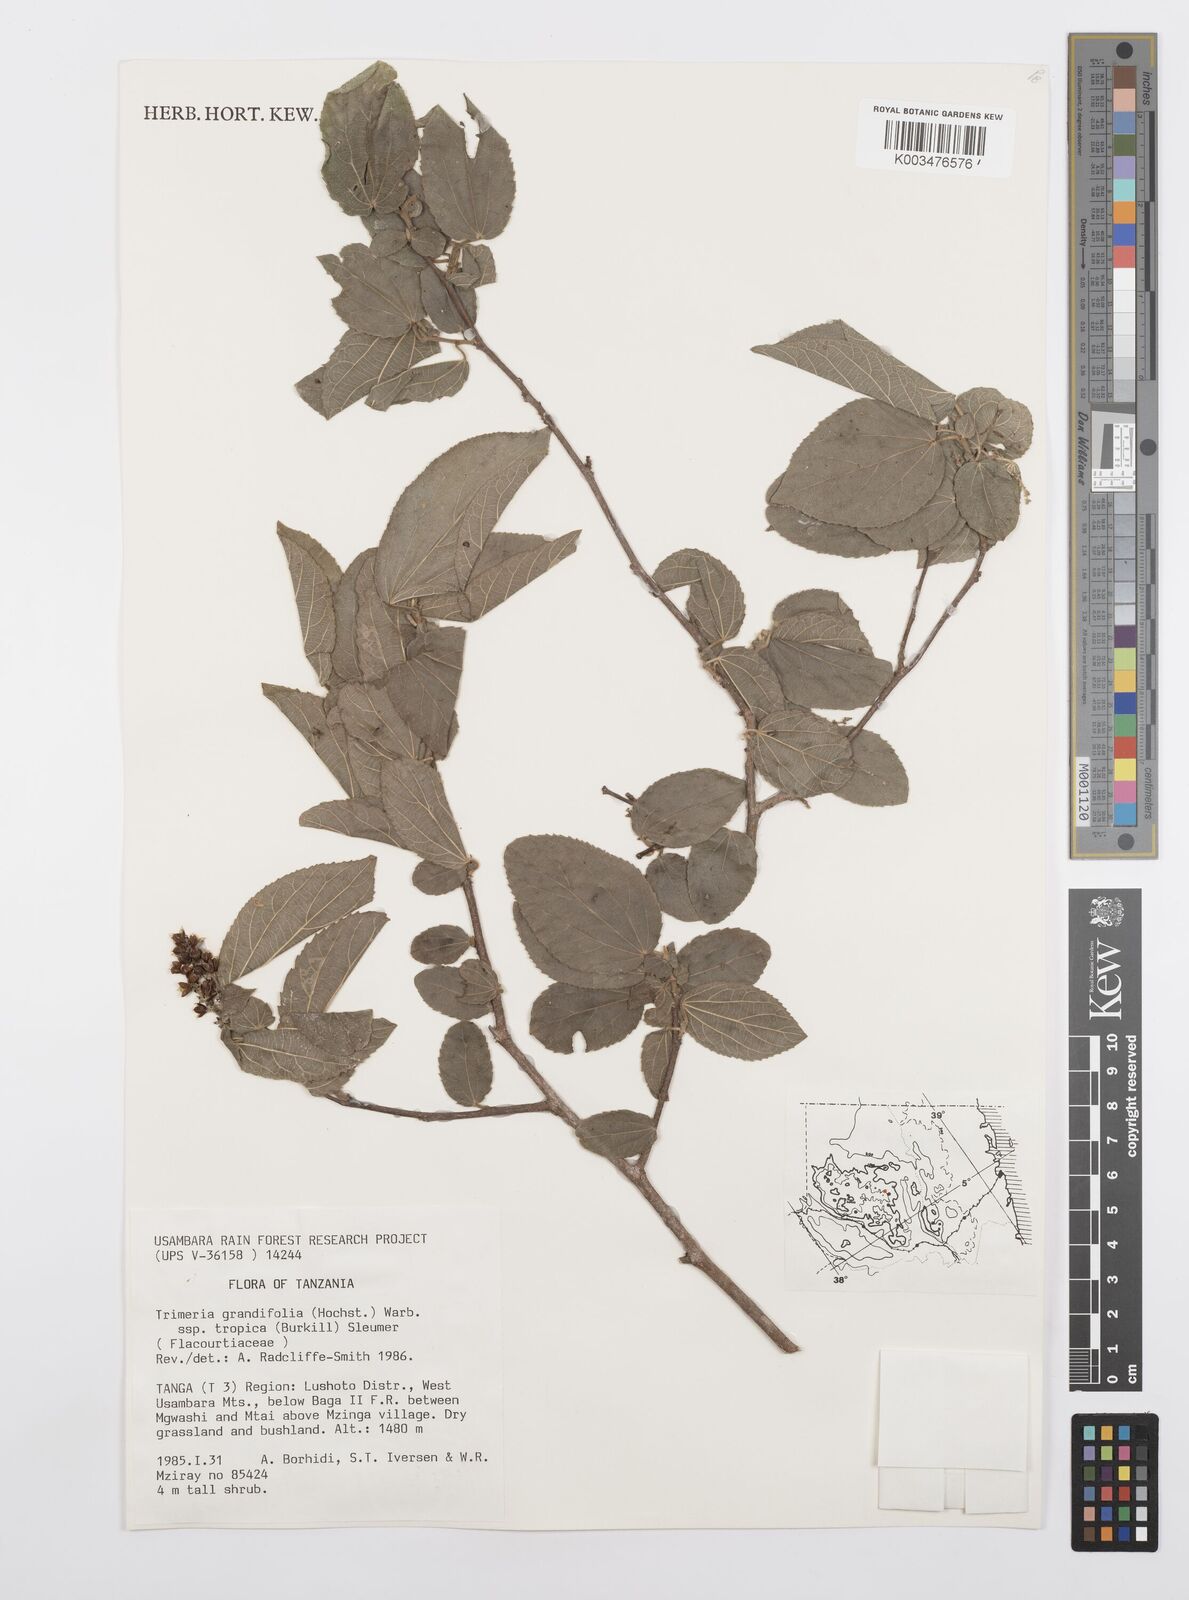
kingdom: Plantae
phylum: Tracheophyta
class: Magnoliopsida
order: Malpighiales
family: Salicaceae
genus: Trimeria
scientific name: Trimeria grandifolia
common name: Wild mulberry
